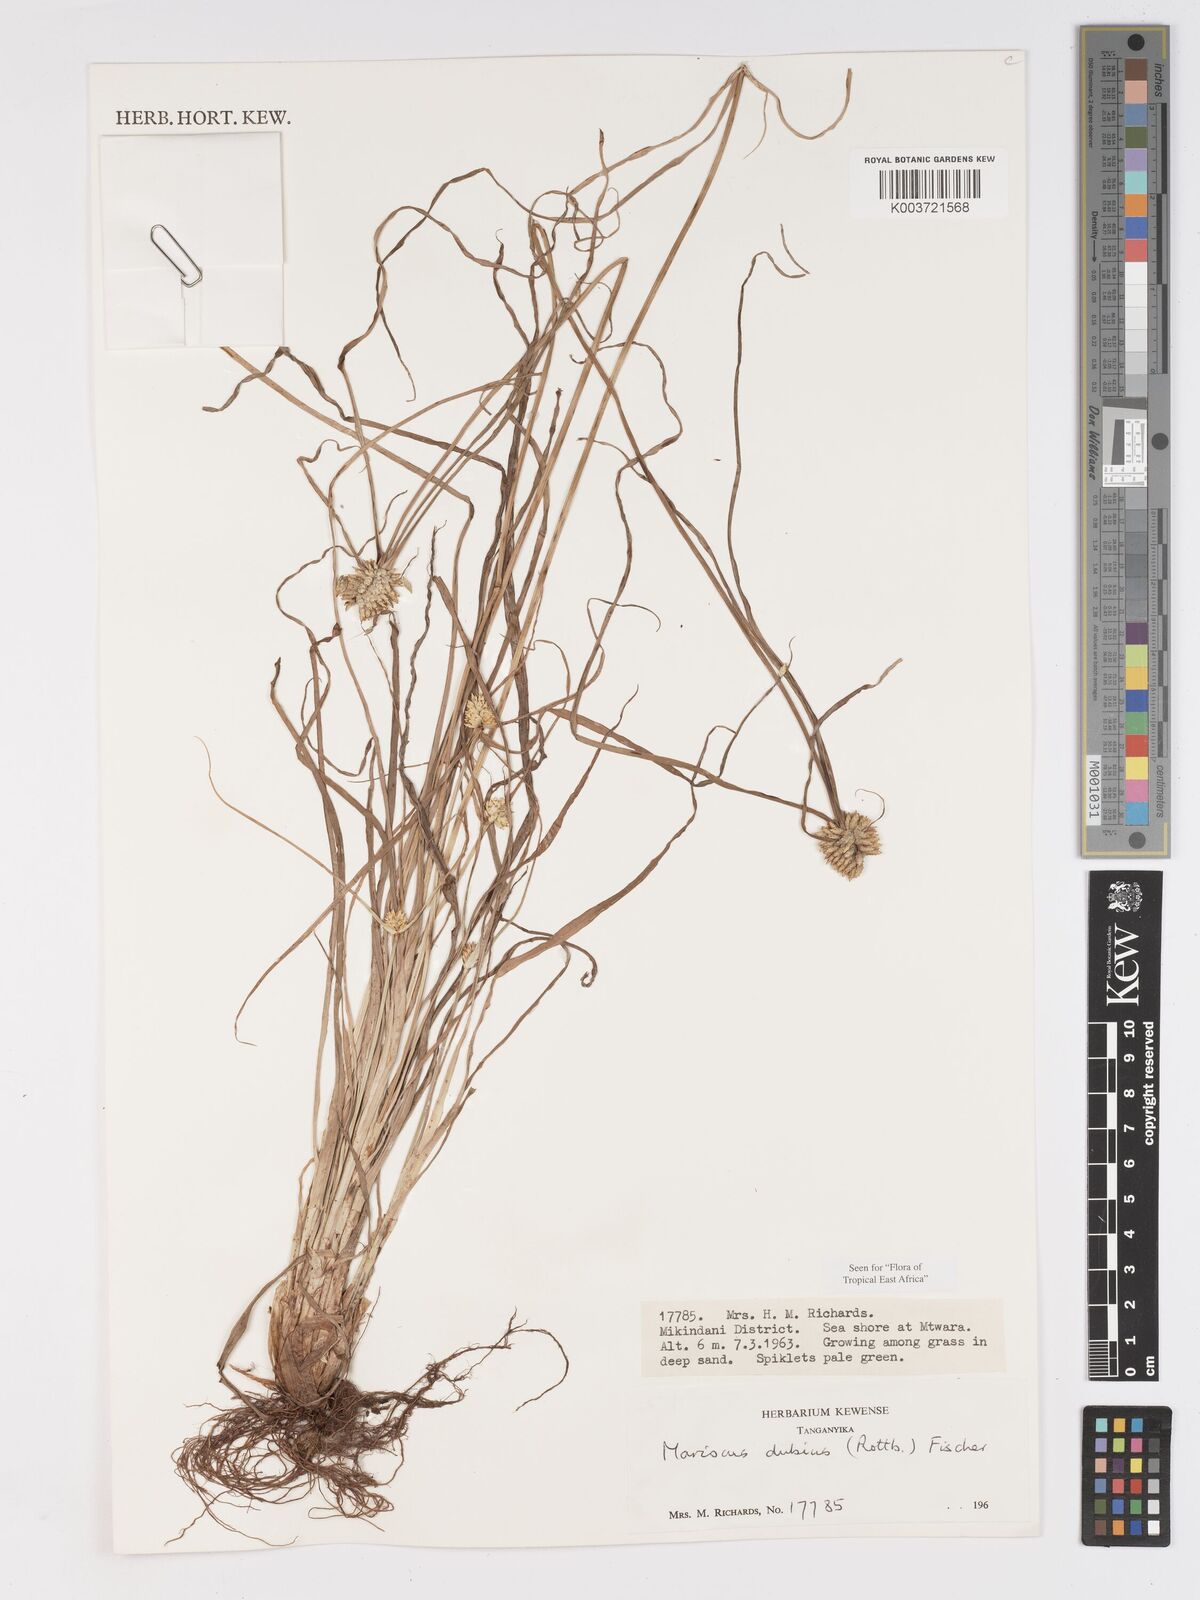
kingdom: Plantae
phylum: Tracheophyta
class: Liliopsida
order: Poales
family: Cyperaceae
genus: Cyperus
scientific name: Cyperus dubius
